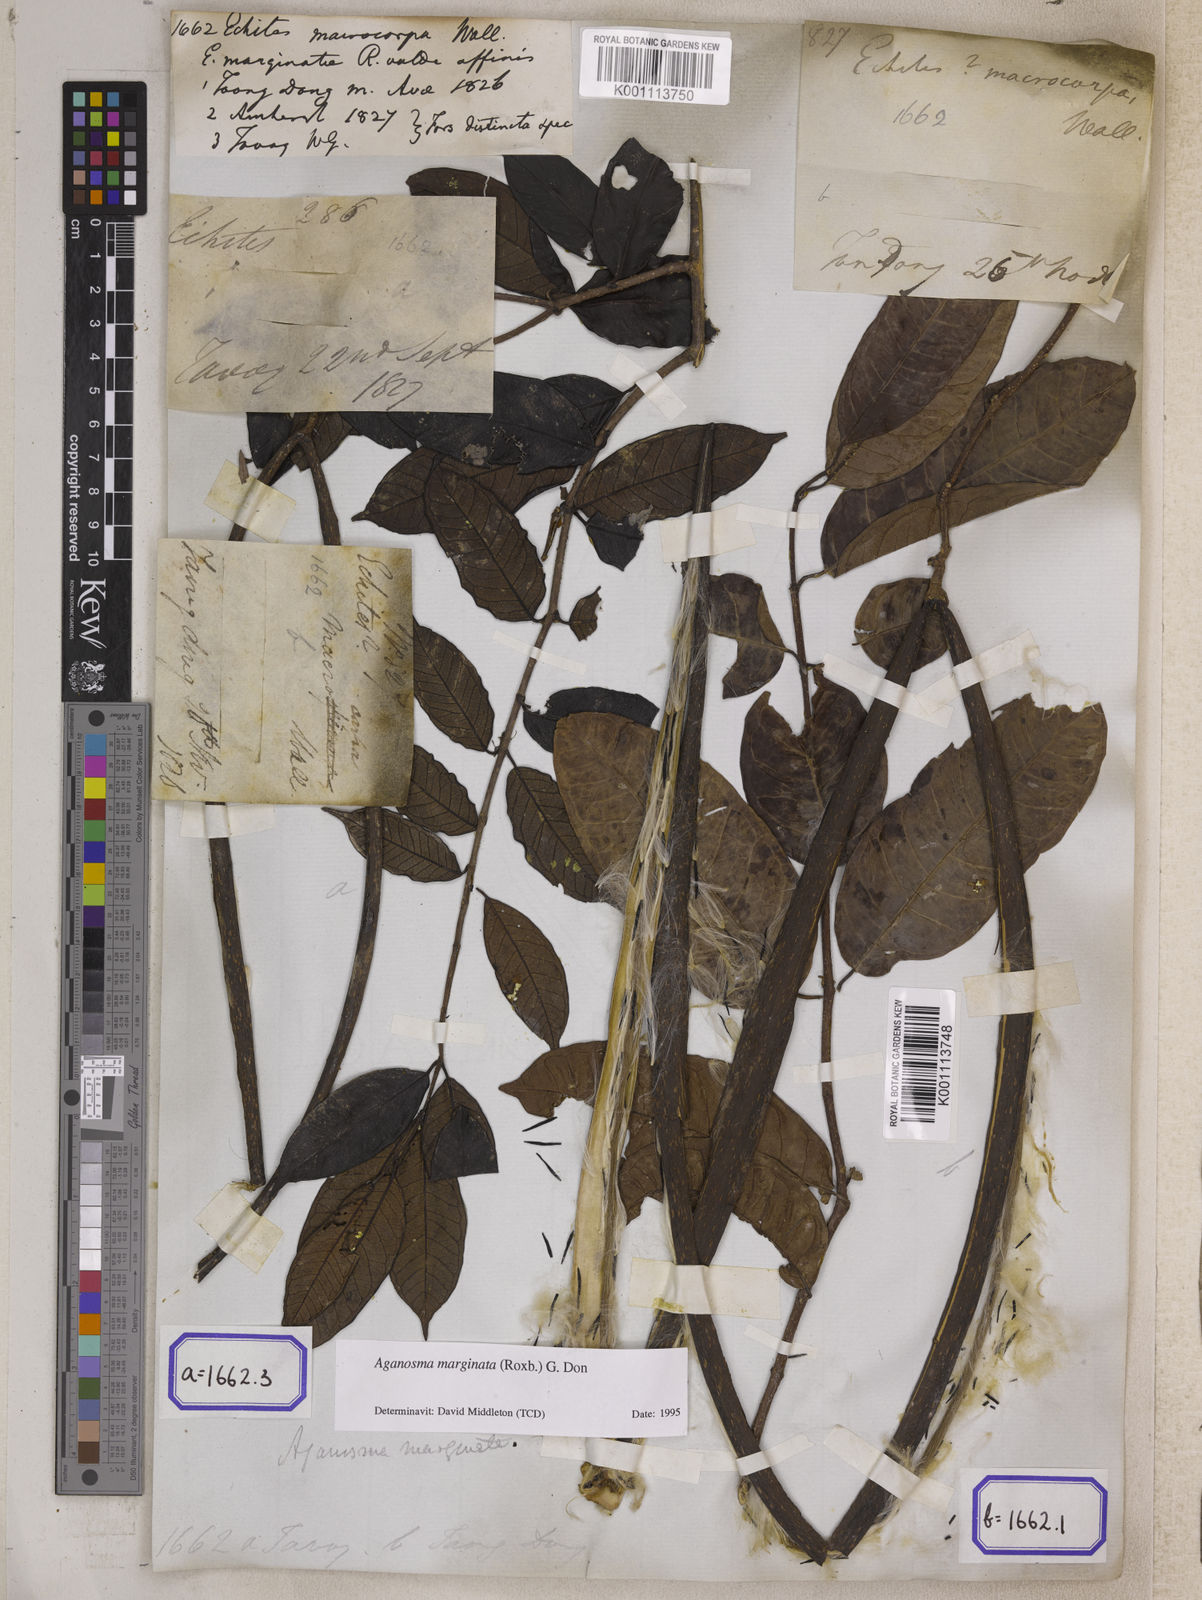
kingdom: Plantae
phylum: Tracheophyta
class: Magnoliopsida
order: Gentianales
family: Apocynaceae
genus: Echites
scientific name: Echites
